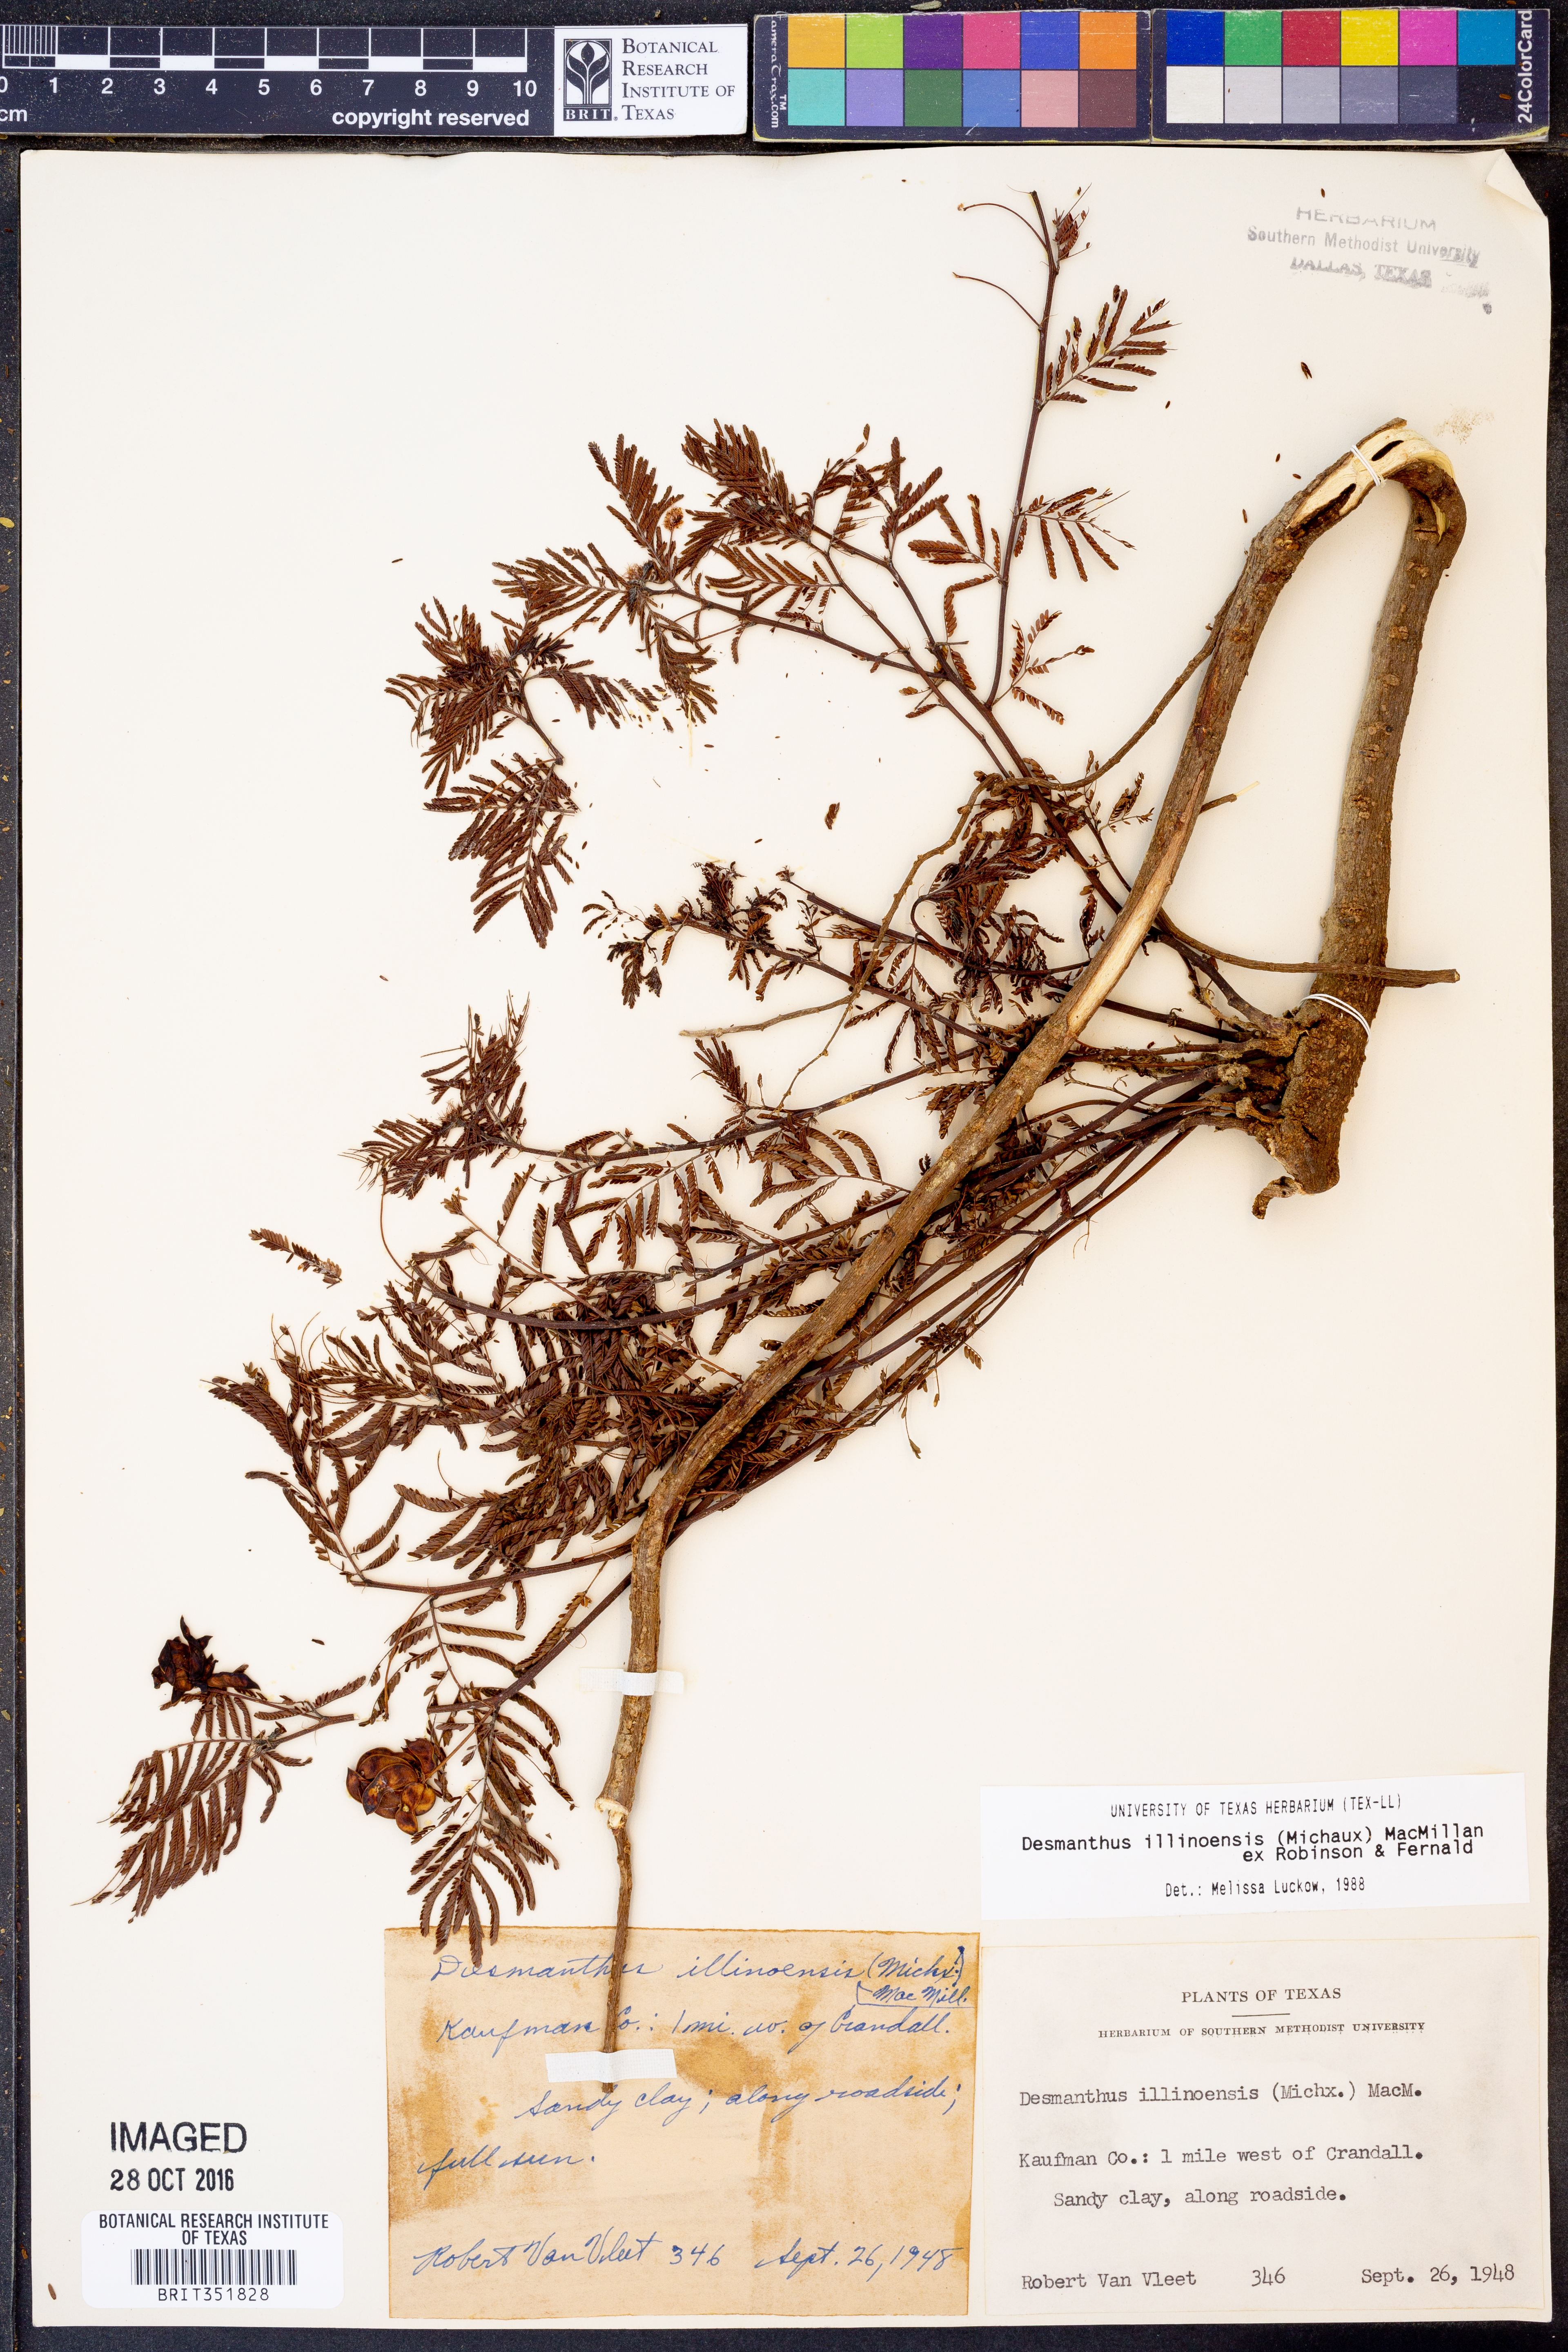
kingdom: Plantae
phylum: Tracheophyta
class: Magnoliopsida
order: Fabales
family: Fabaceae
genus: Desmanthus
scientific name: Desmanthus illinoensis
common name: Illinois bundle-flower
